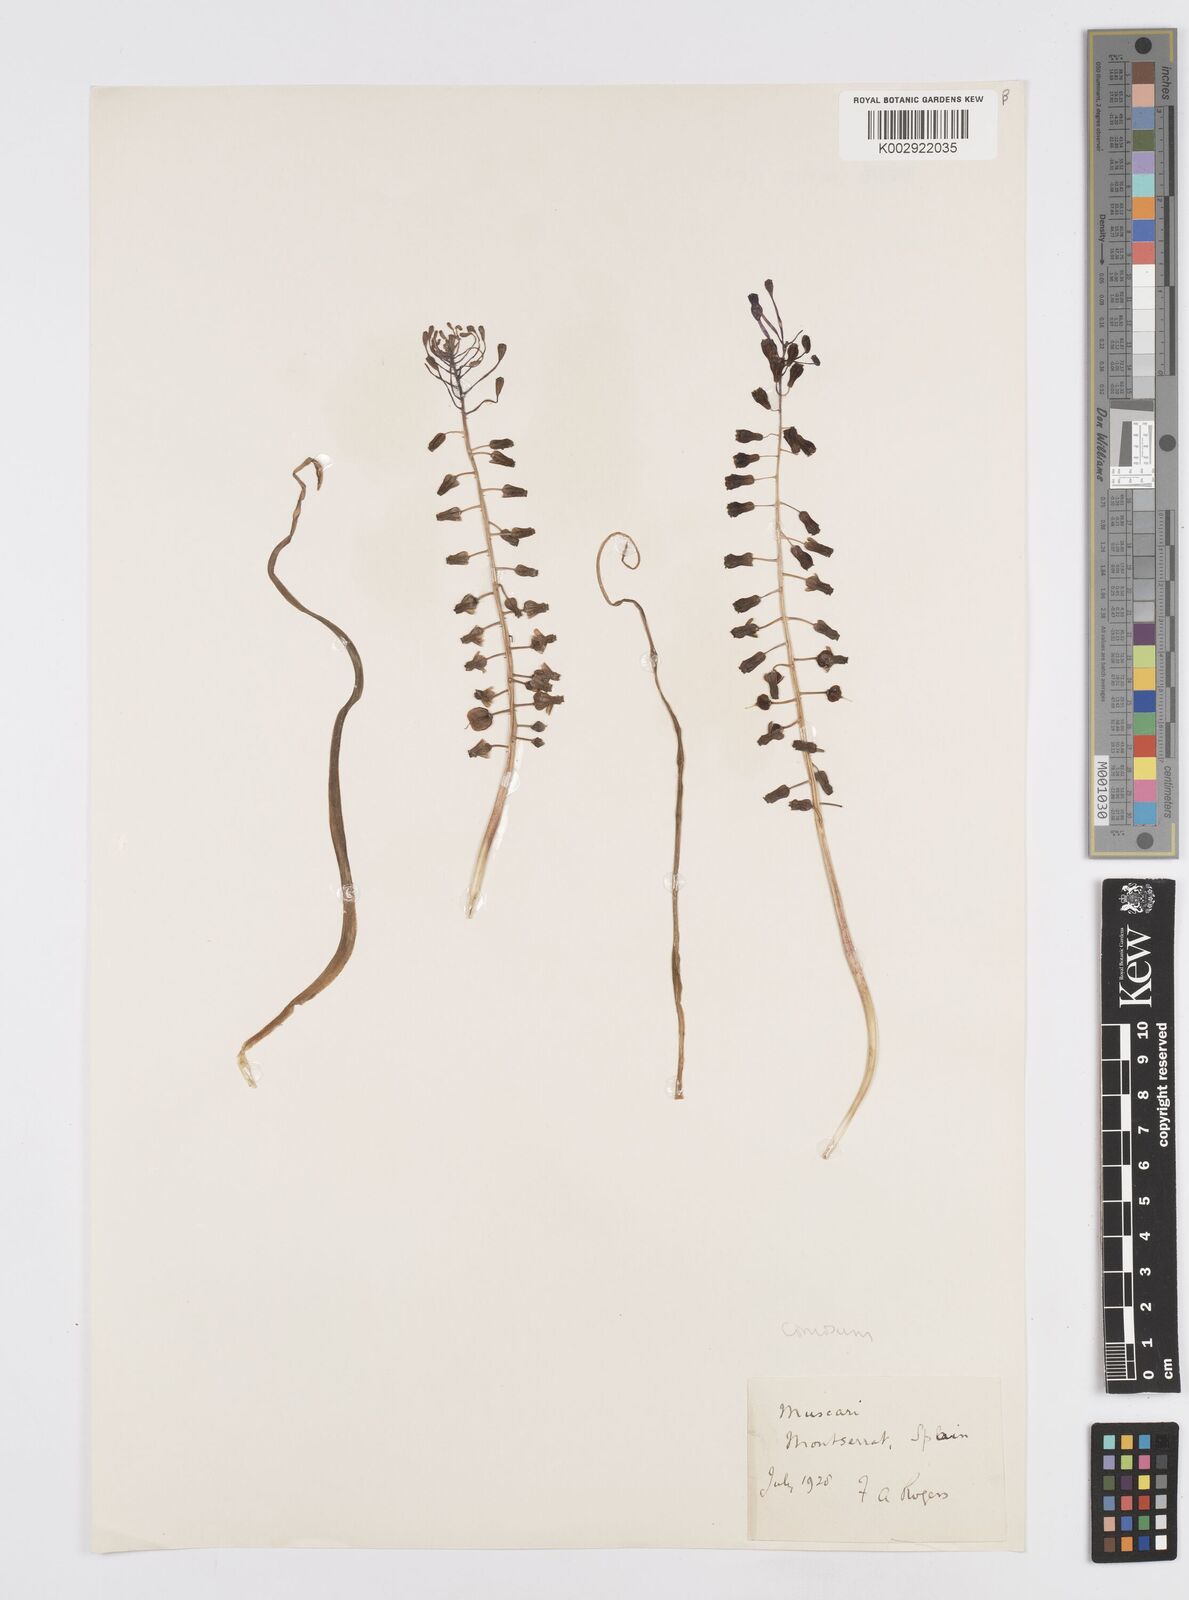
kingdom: Animalia
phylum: Mollusca
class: Cephalopoda
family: Neocomitidae
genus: Leopoldia
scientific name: Leopoldia
